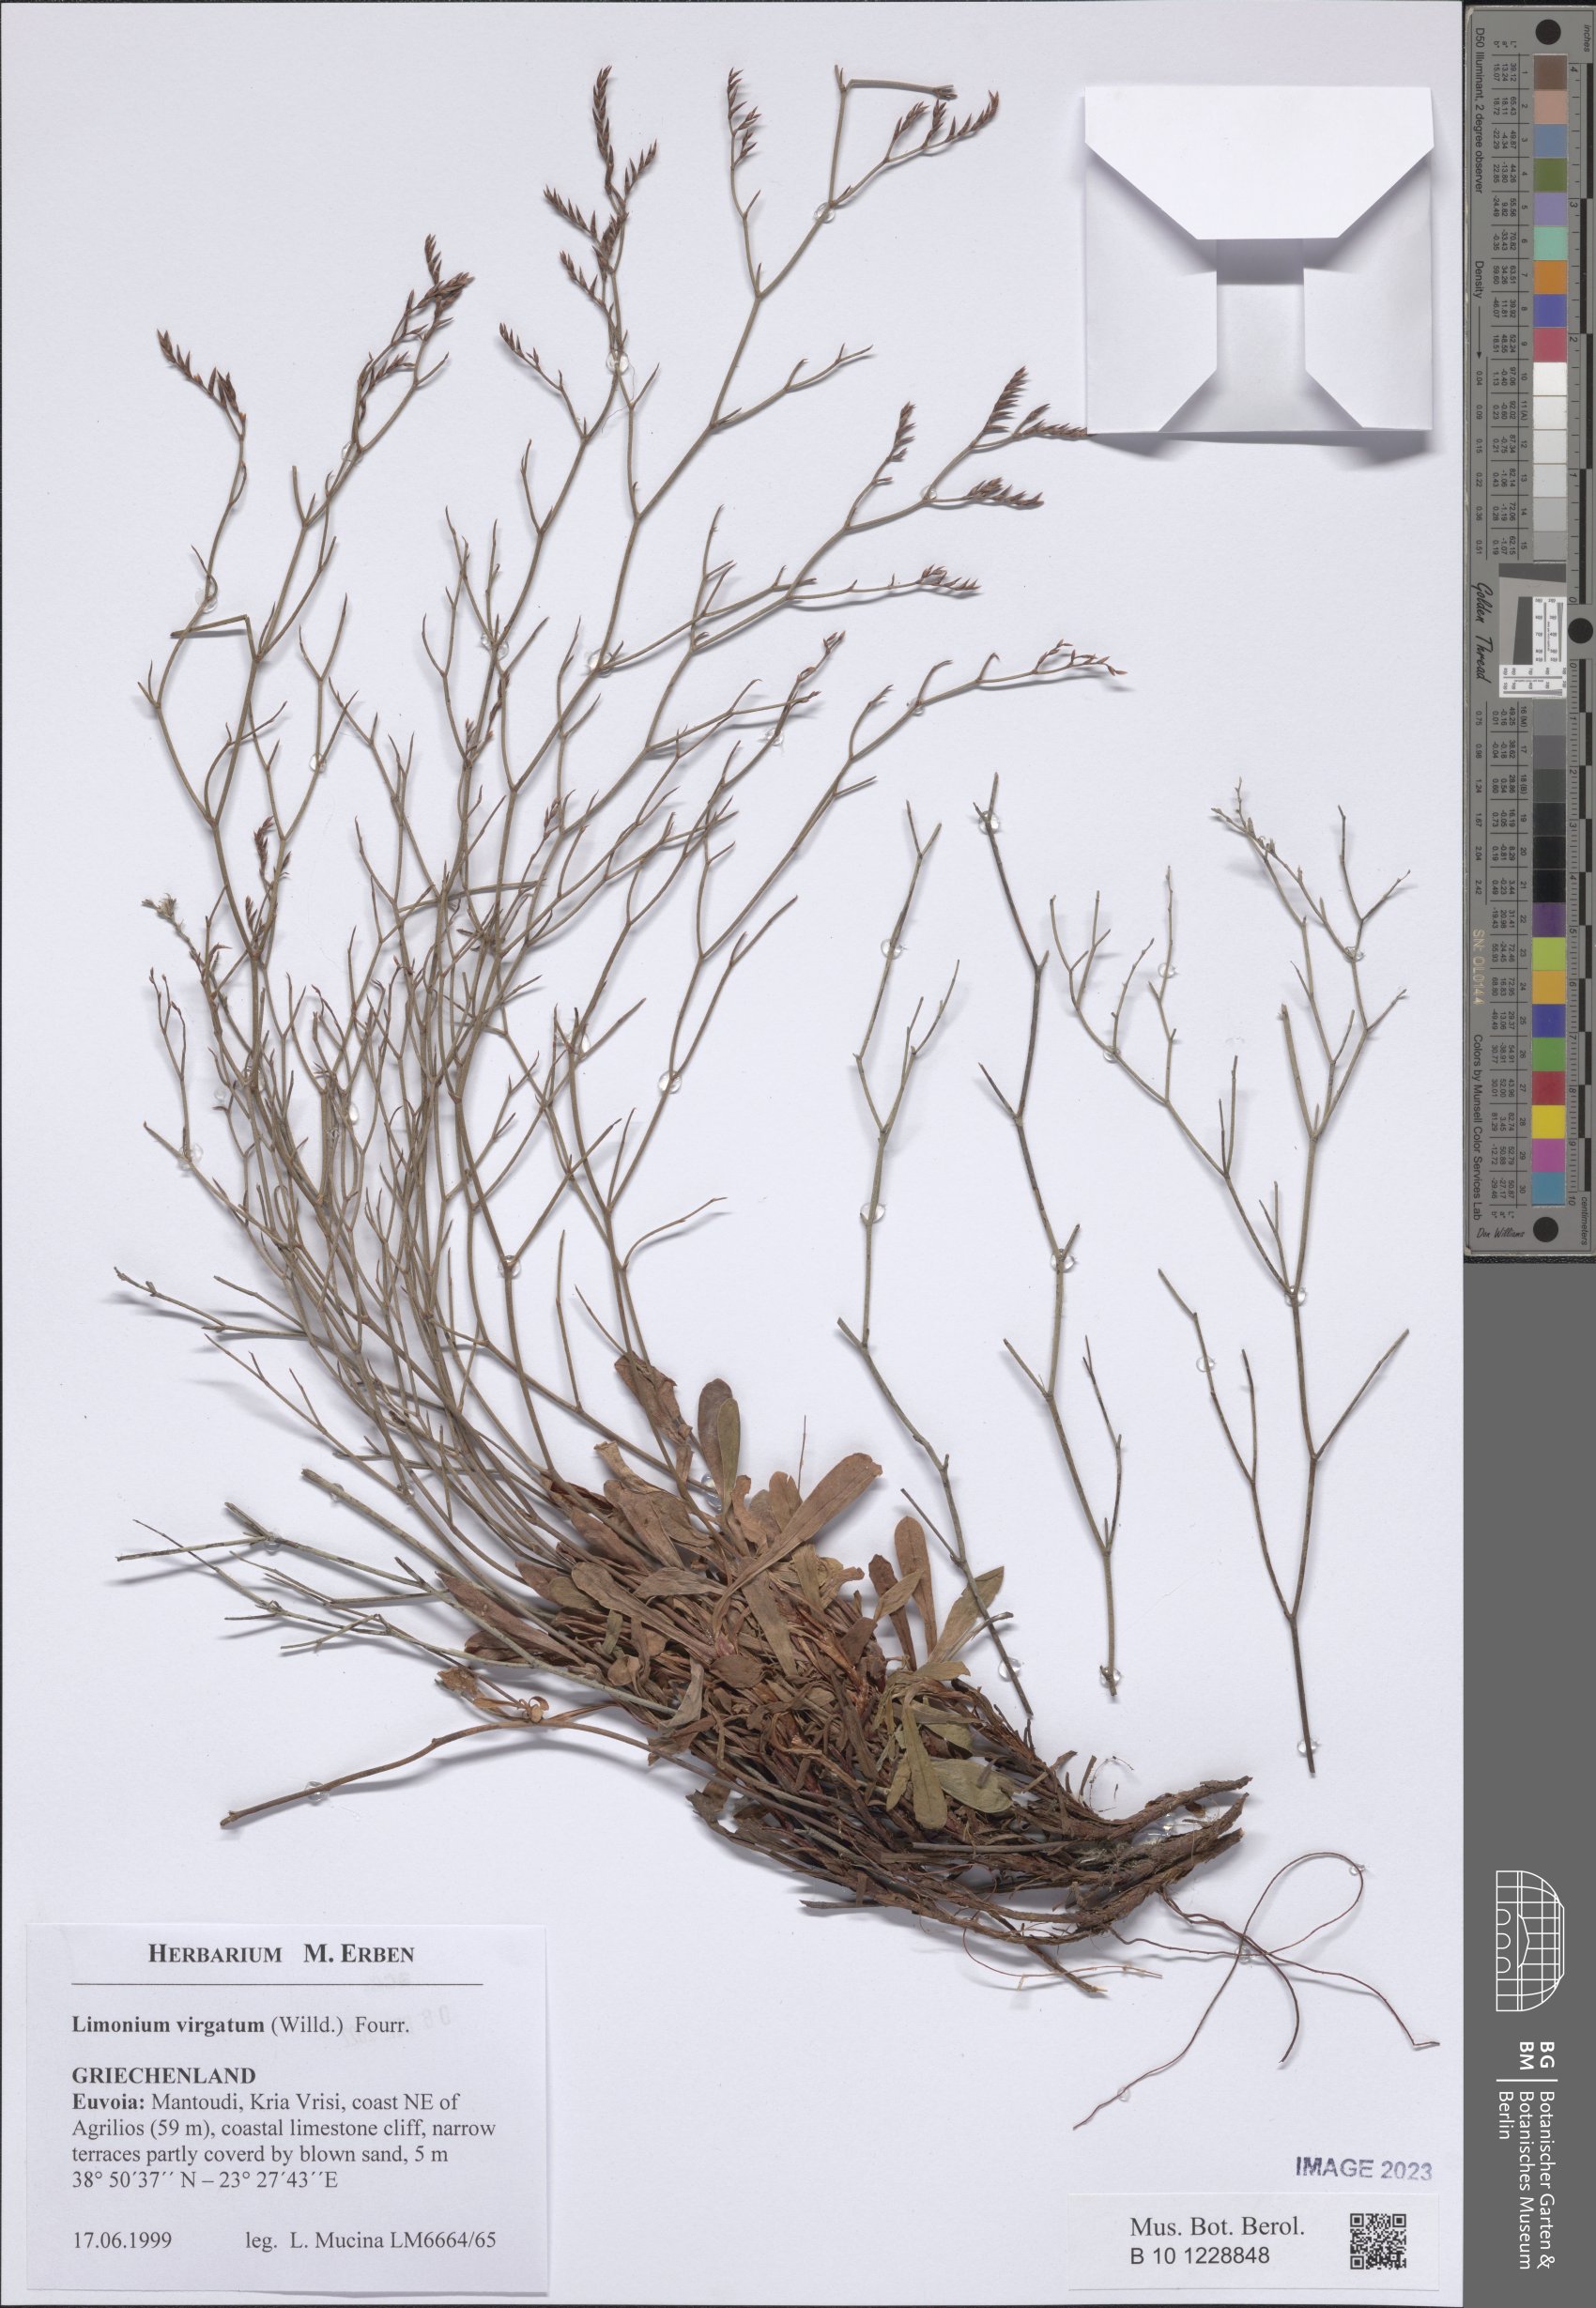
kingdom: Plantae
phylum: Tracheophyta
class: Magnoliopsida
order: Caryophyllales
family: Plumbaginaceae
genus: Limonium
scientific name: Limonium virgatum
